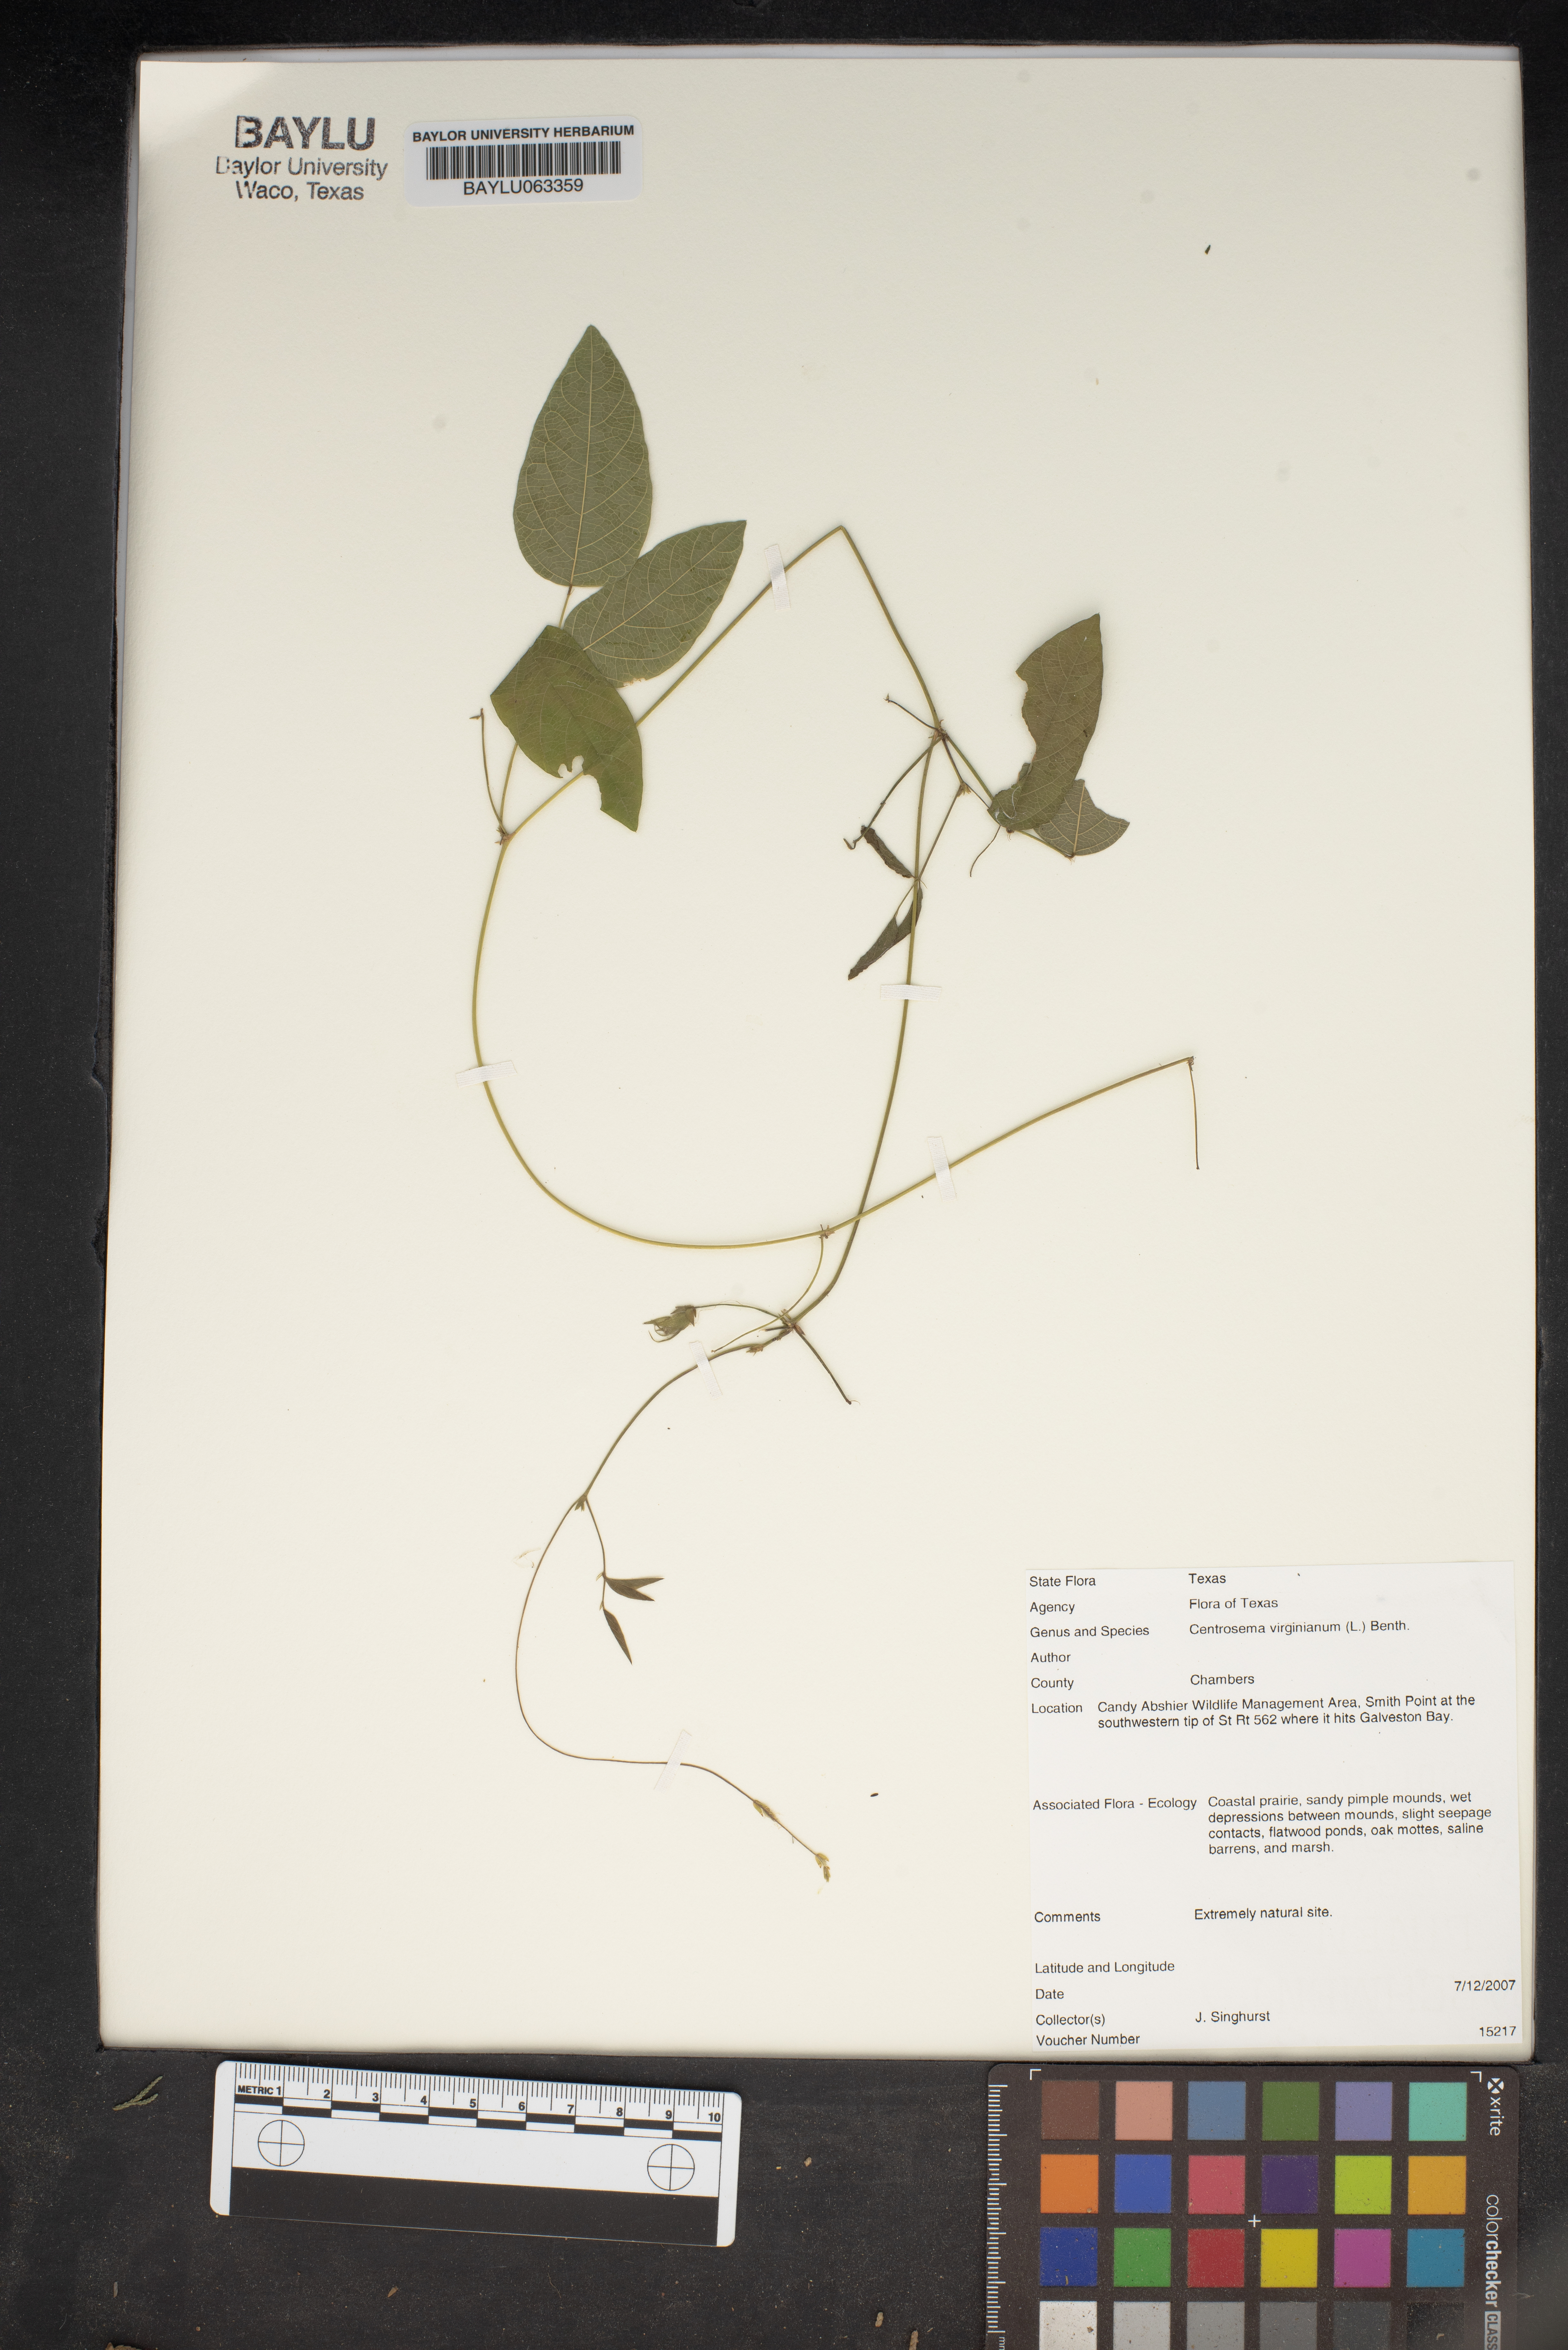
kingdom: Plantae
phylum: Tracheophyta
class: Magnoliopsida
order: Fabales
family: Fabaceae
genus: Centrosema
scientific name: Centrosema virginianum
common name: Butterfly-pea
